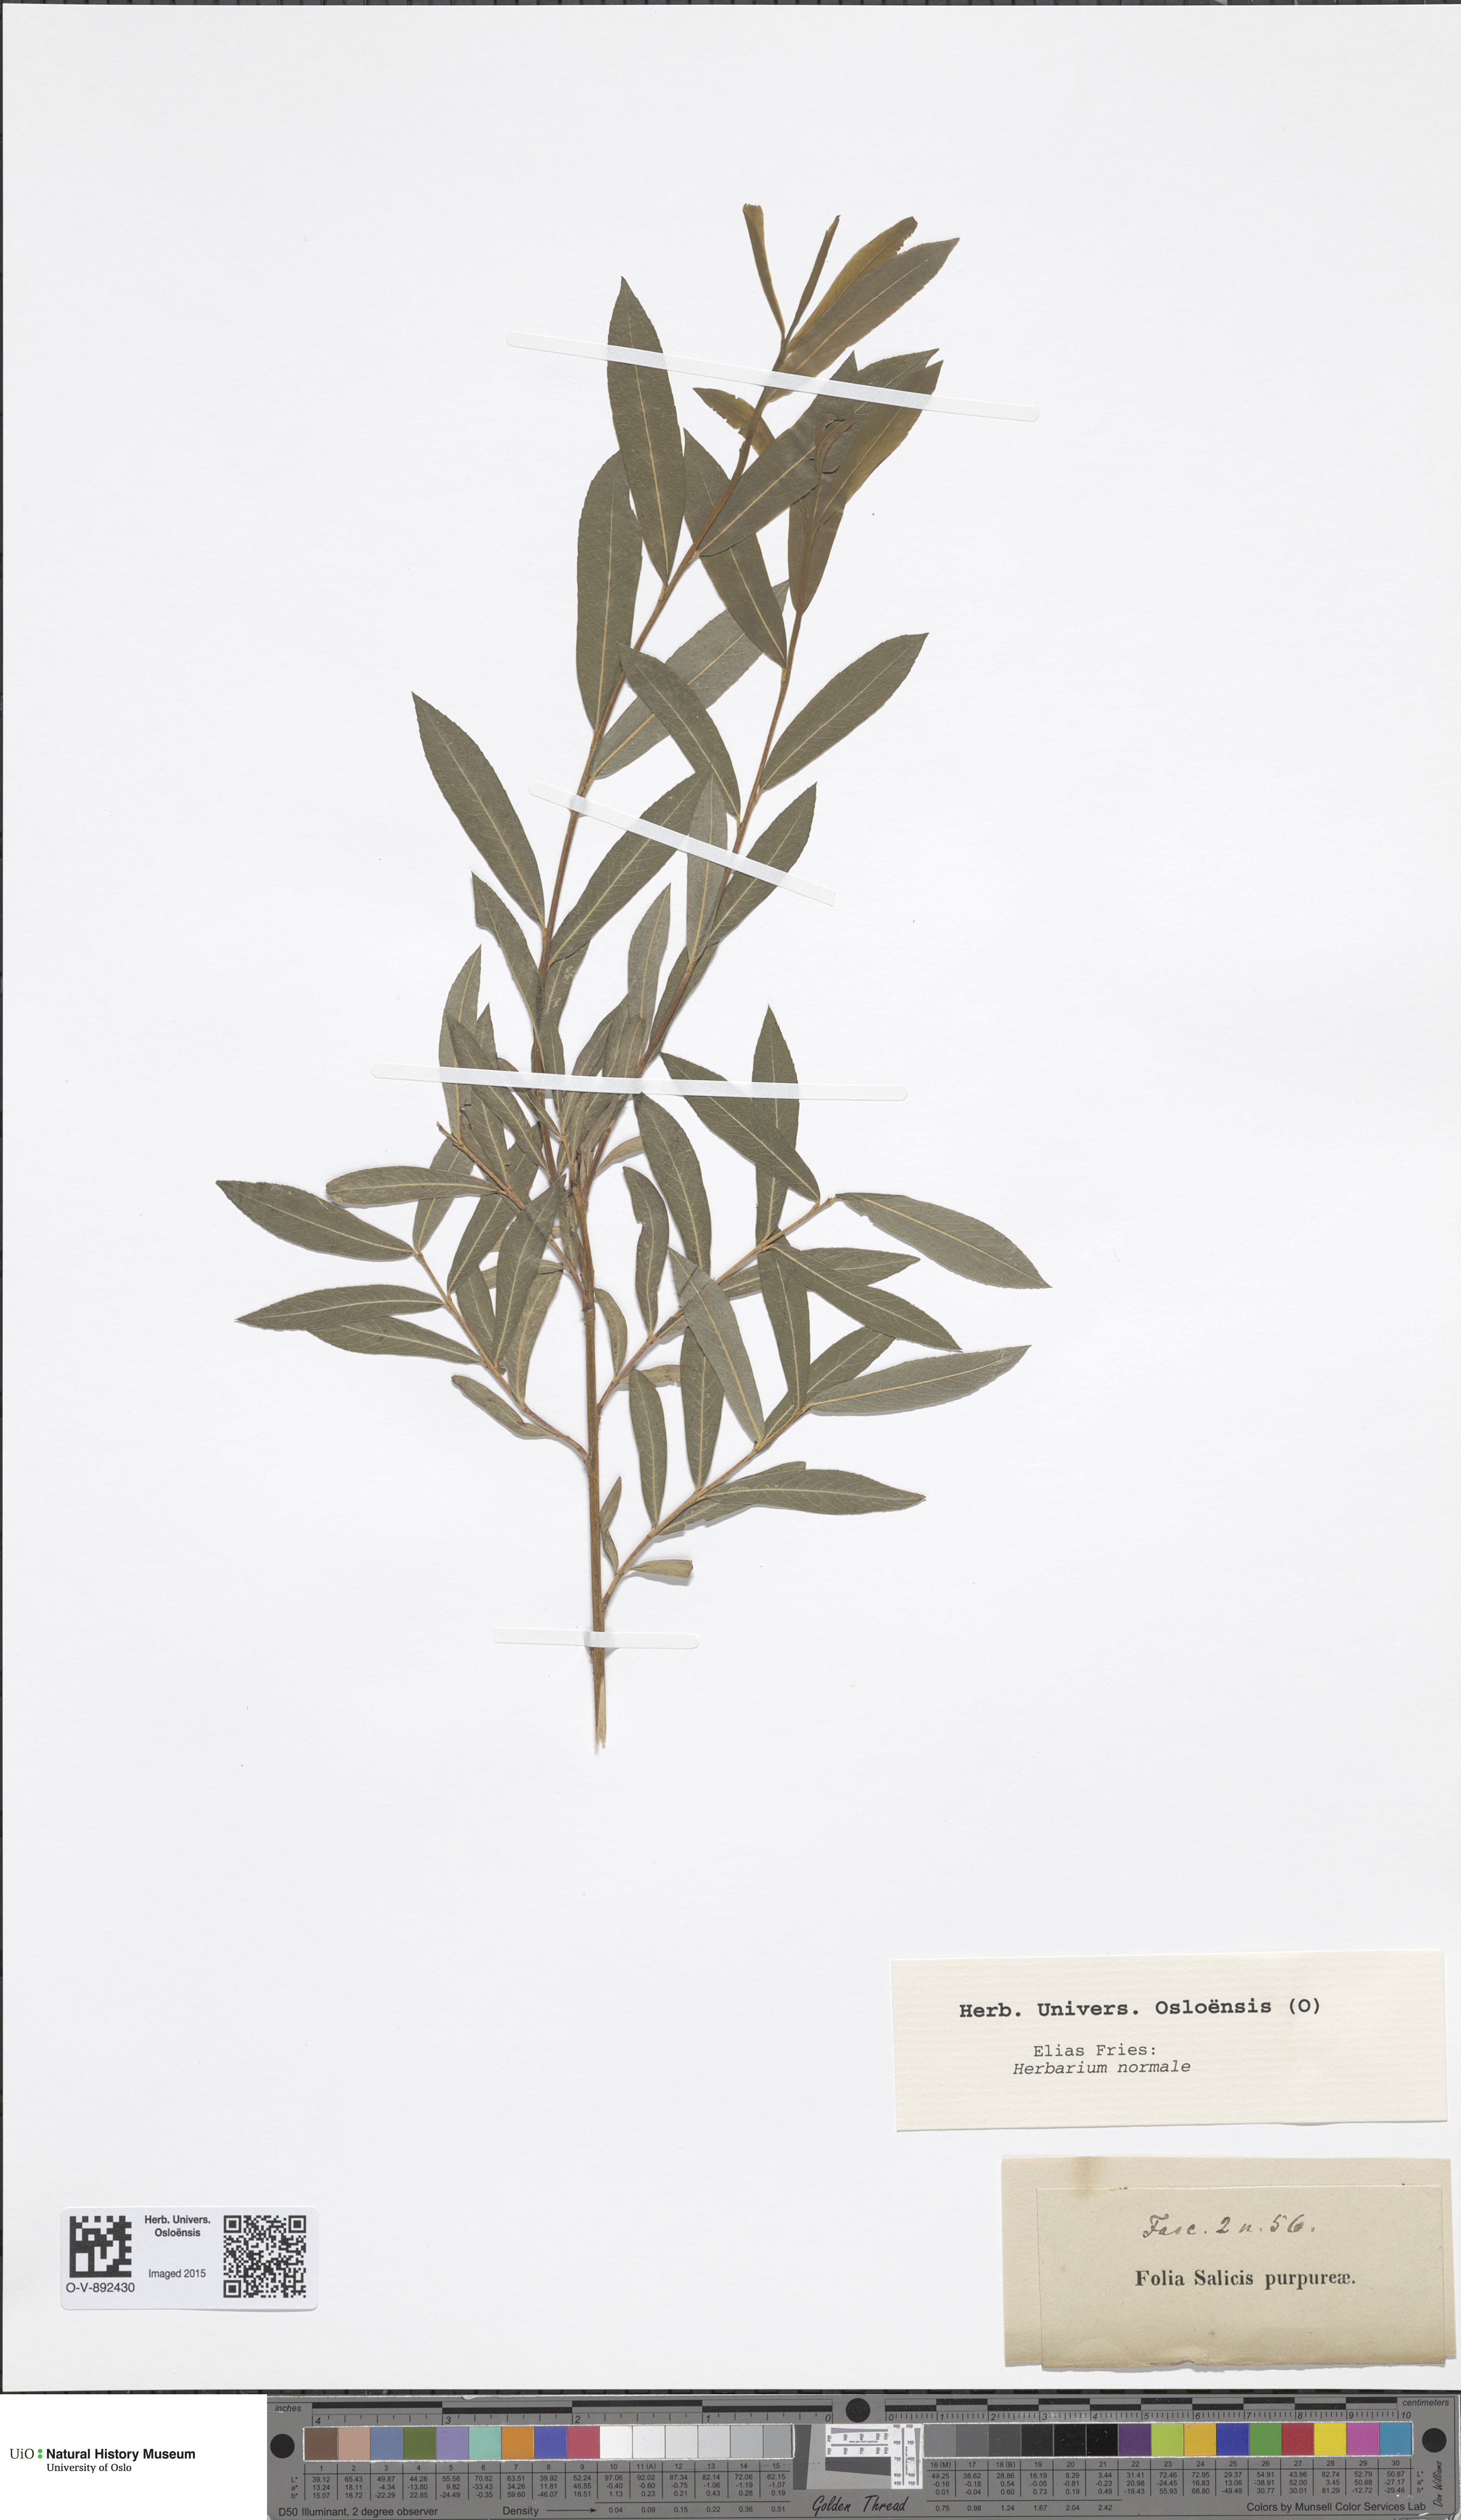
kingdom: Plantae
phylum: Tracheophyta
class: Magnoliopsida
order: Malpighiales
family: Salicaceae
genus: Salix
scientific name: Salix purpurea
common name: Purple willow
